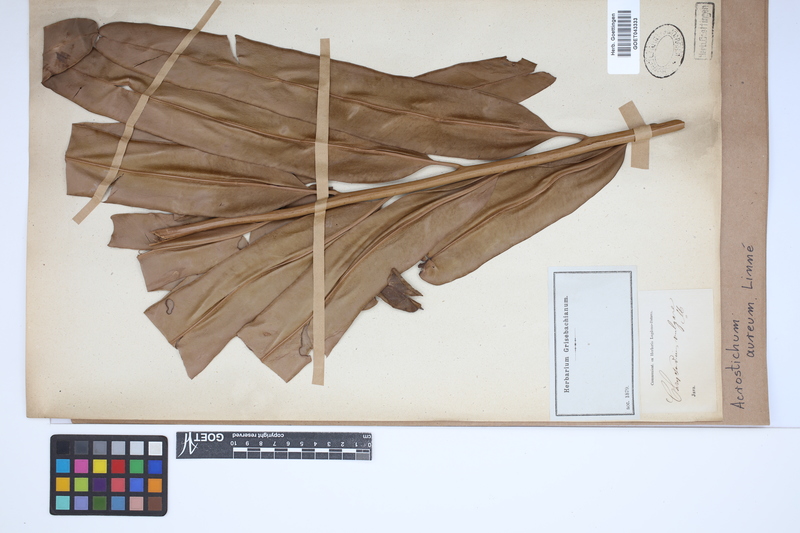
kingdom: Plantae
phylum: Tracheophyta
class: Polypodiopsida
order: Polypodiales
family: Pteridaceae
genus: Acrostichum
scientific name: Acrostichum aureum
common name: Leather fern
